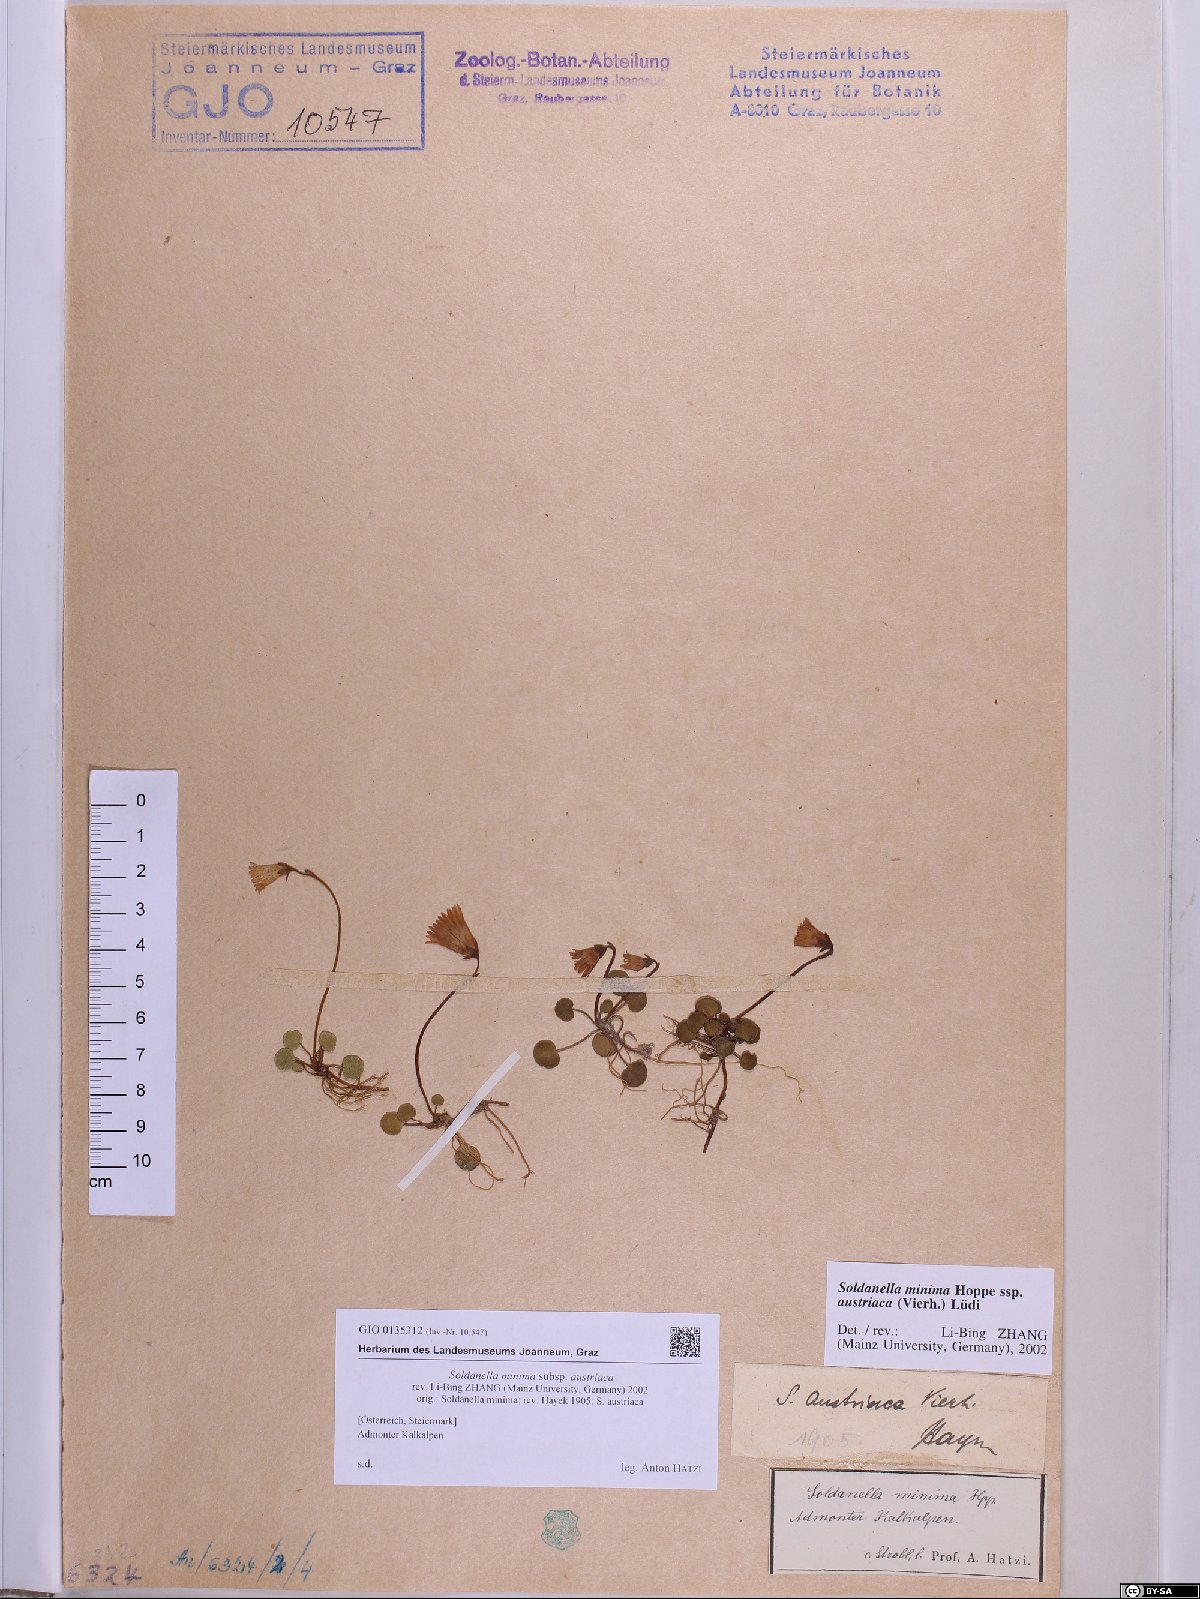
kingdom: Plantae
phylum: Tracheophyta
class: Magnoliopsida
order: Ericales
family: Primulaceae
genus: Soldanella
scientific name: Soldanella austriaca
